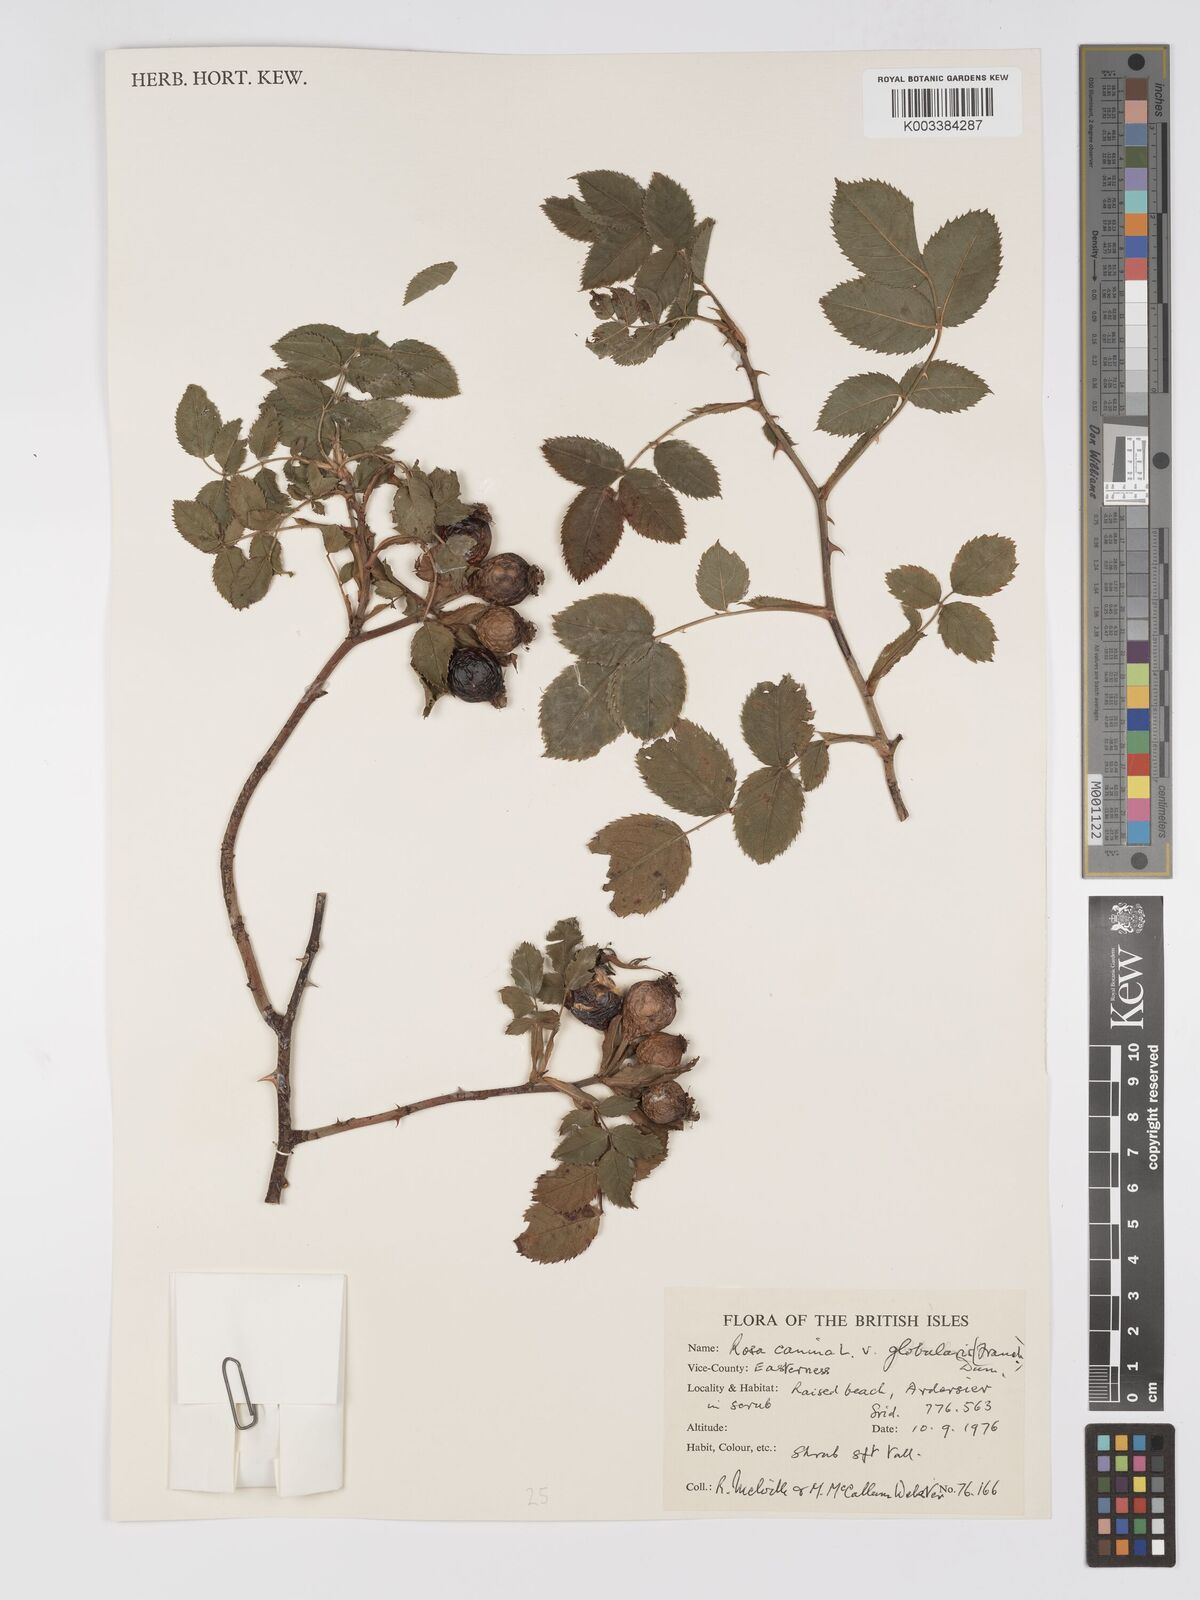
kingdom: Plantae
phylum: Tracheophyta
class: Magnoliopsida
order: Rosales
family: Rosaceae
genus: Rosa
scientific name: Rosa canina
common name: Dog rose
